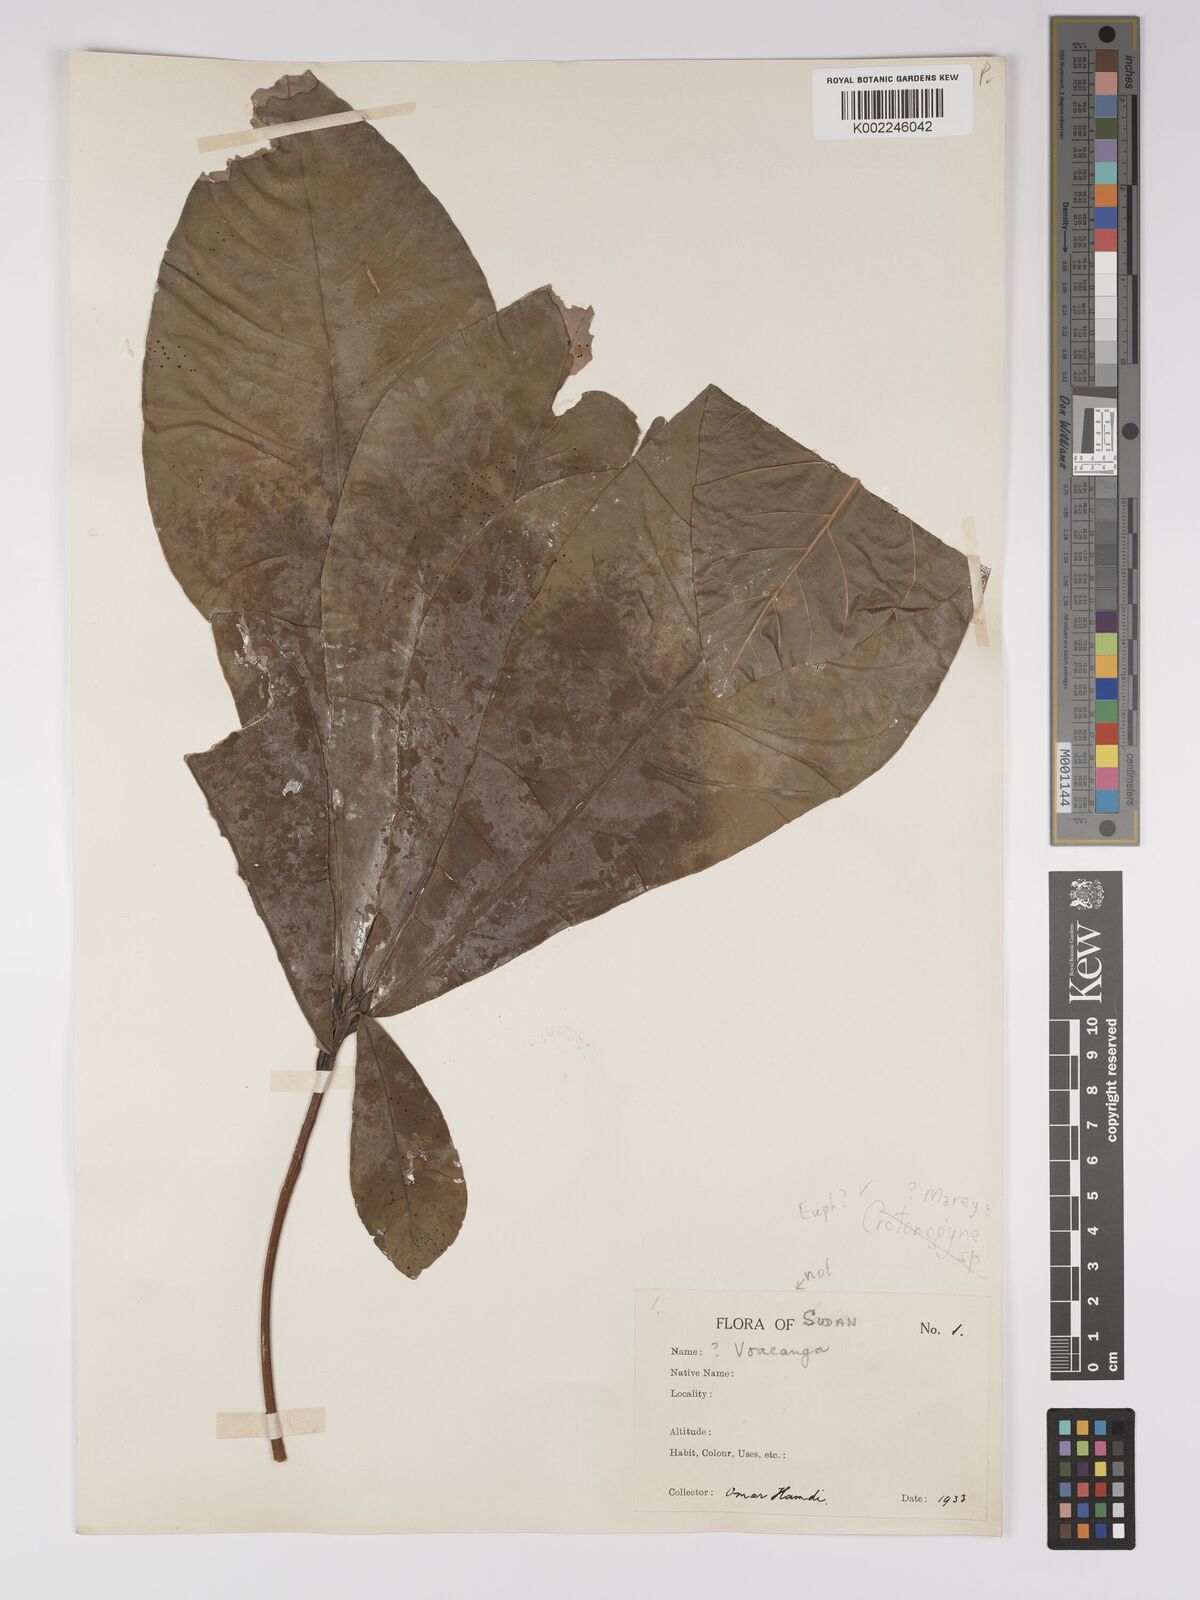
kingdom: Plantae
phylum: Tracheophyta
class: Magnoliopsida
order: Malpighiales
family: Euphorbiaceae
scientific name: Euphorbiaceae
